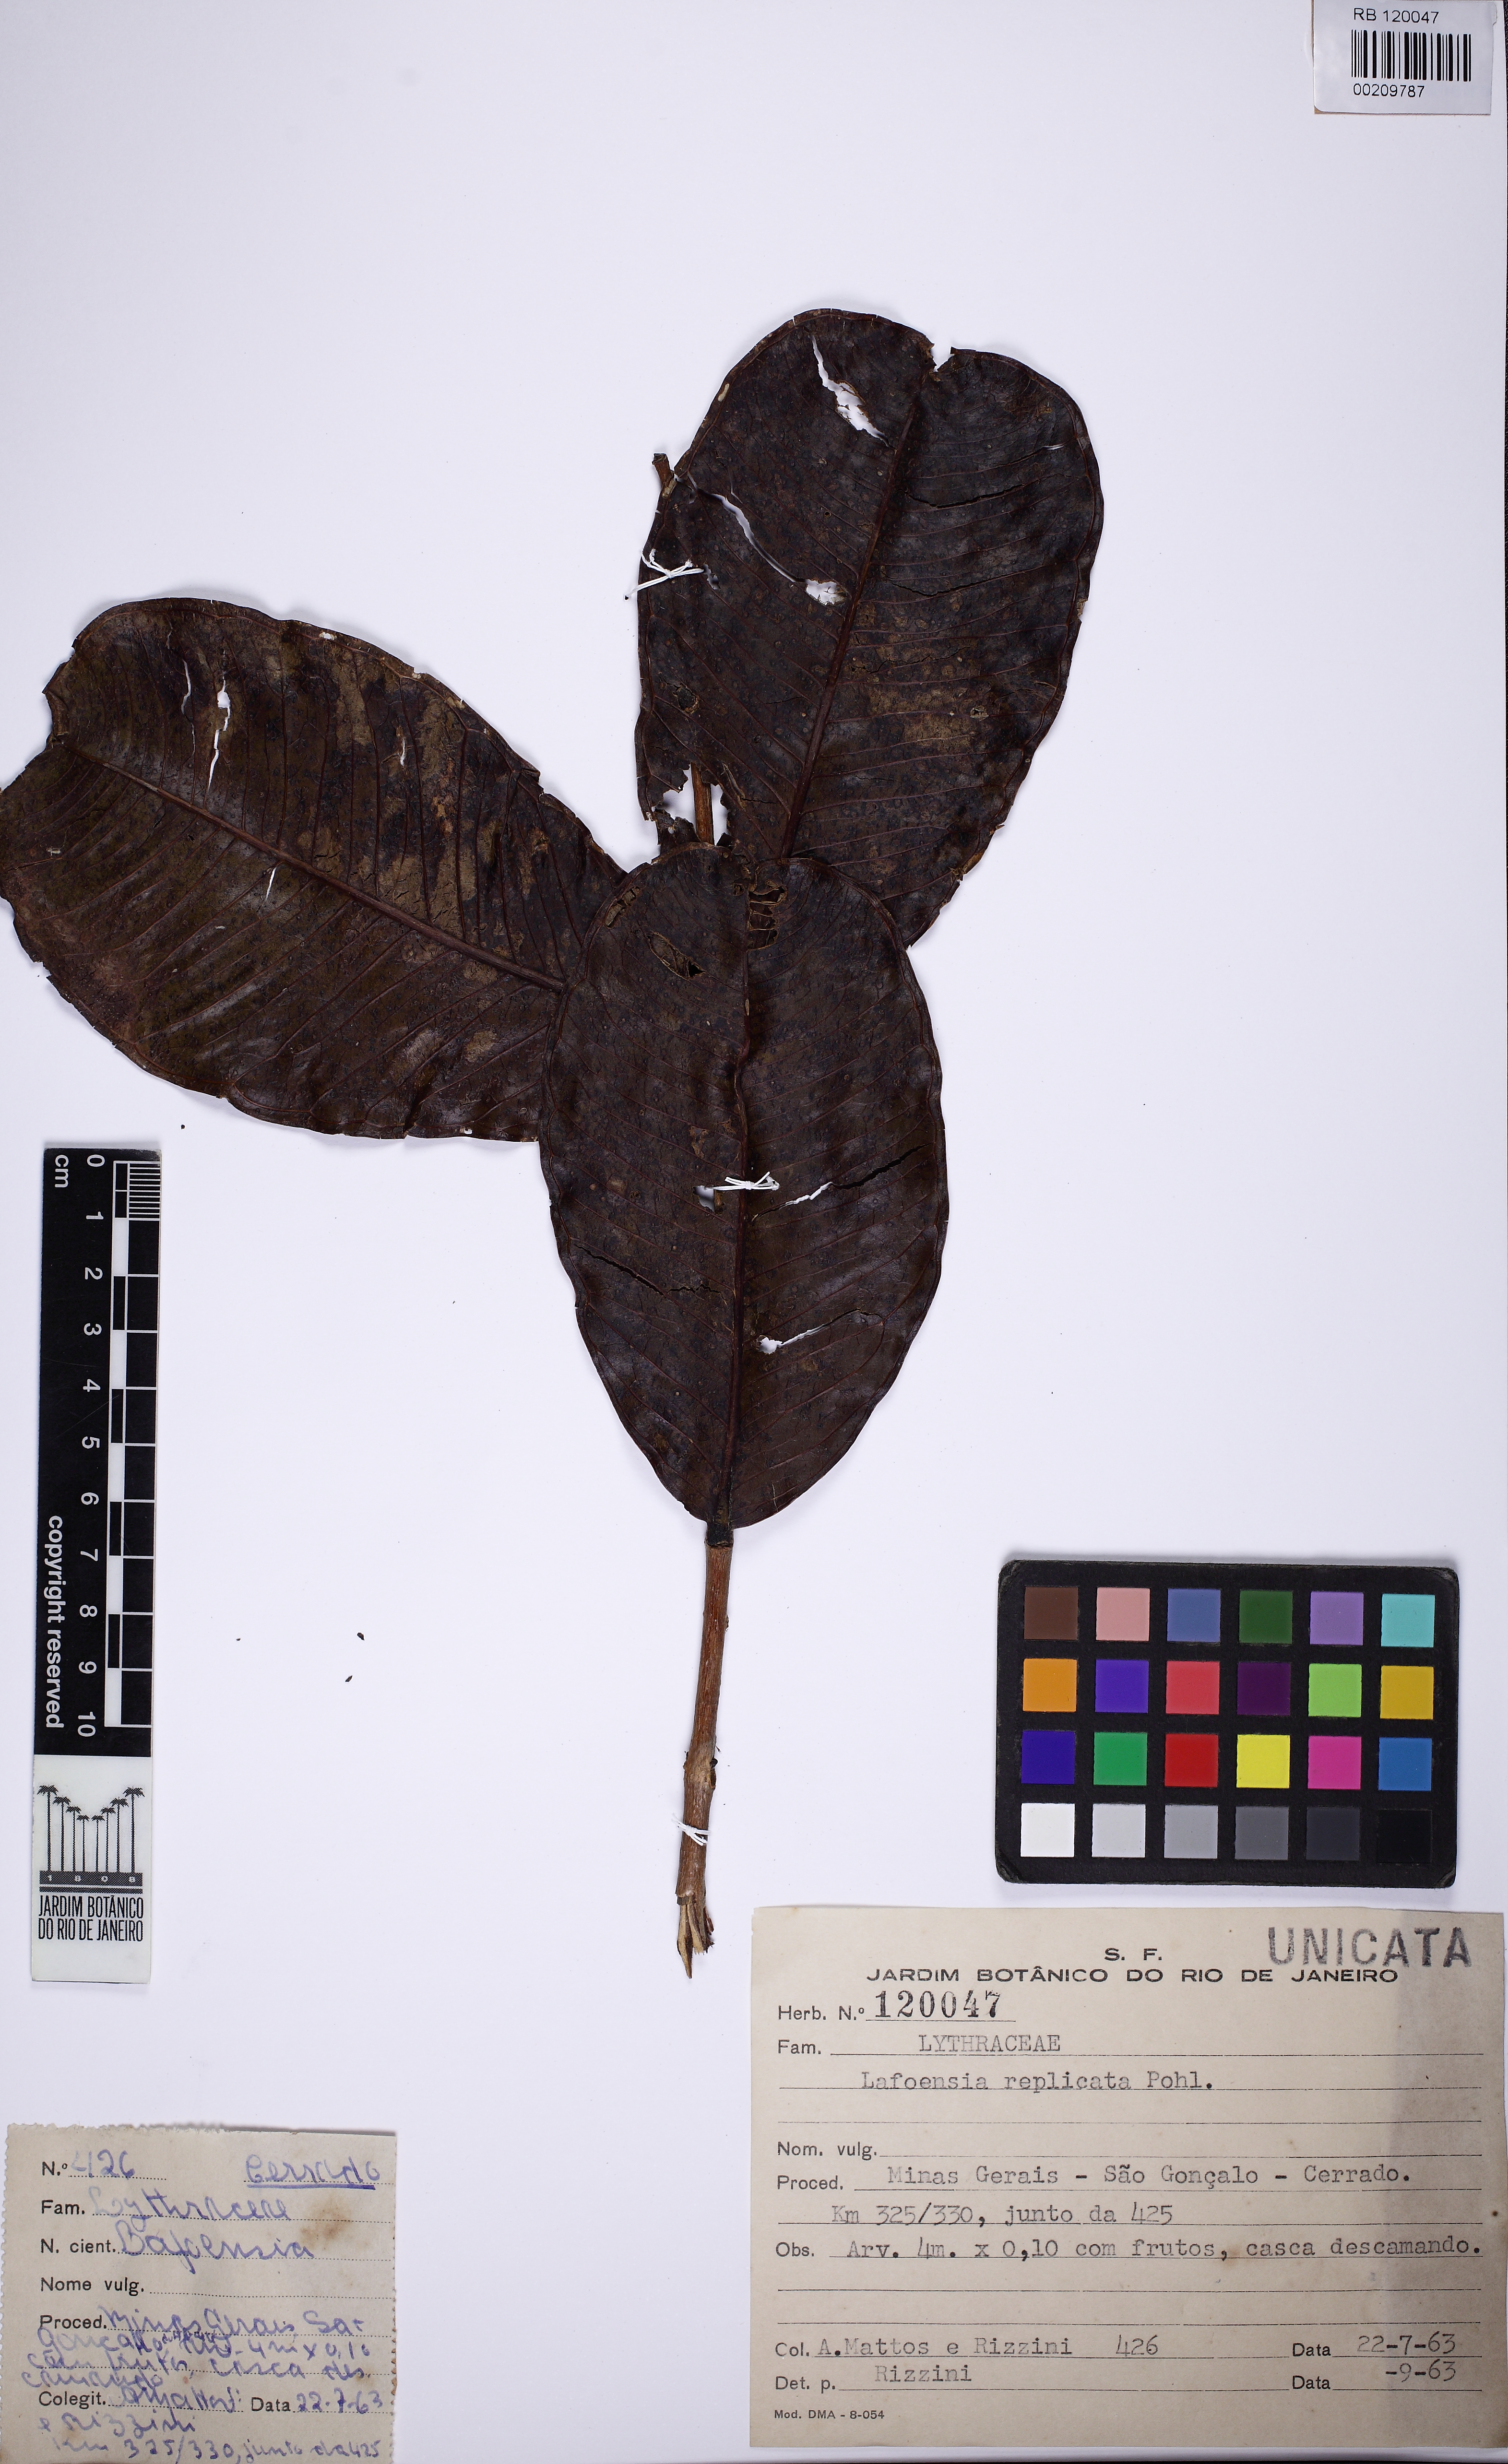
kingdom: Plantae
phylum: Tracheophyta
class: Magnoliopsida
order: Myrtales
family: Lythraceae
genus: Lafoensia
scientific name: Lafoensia vandelliana
